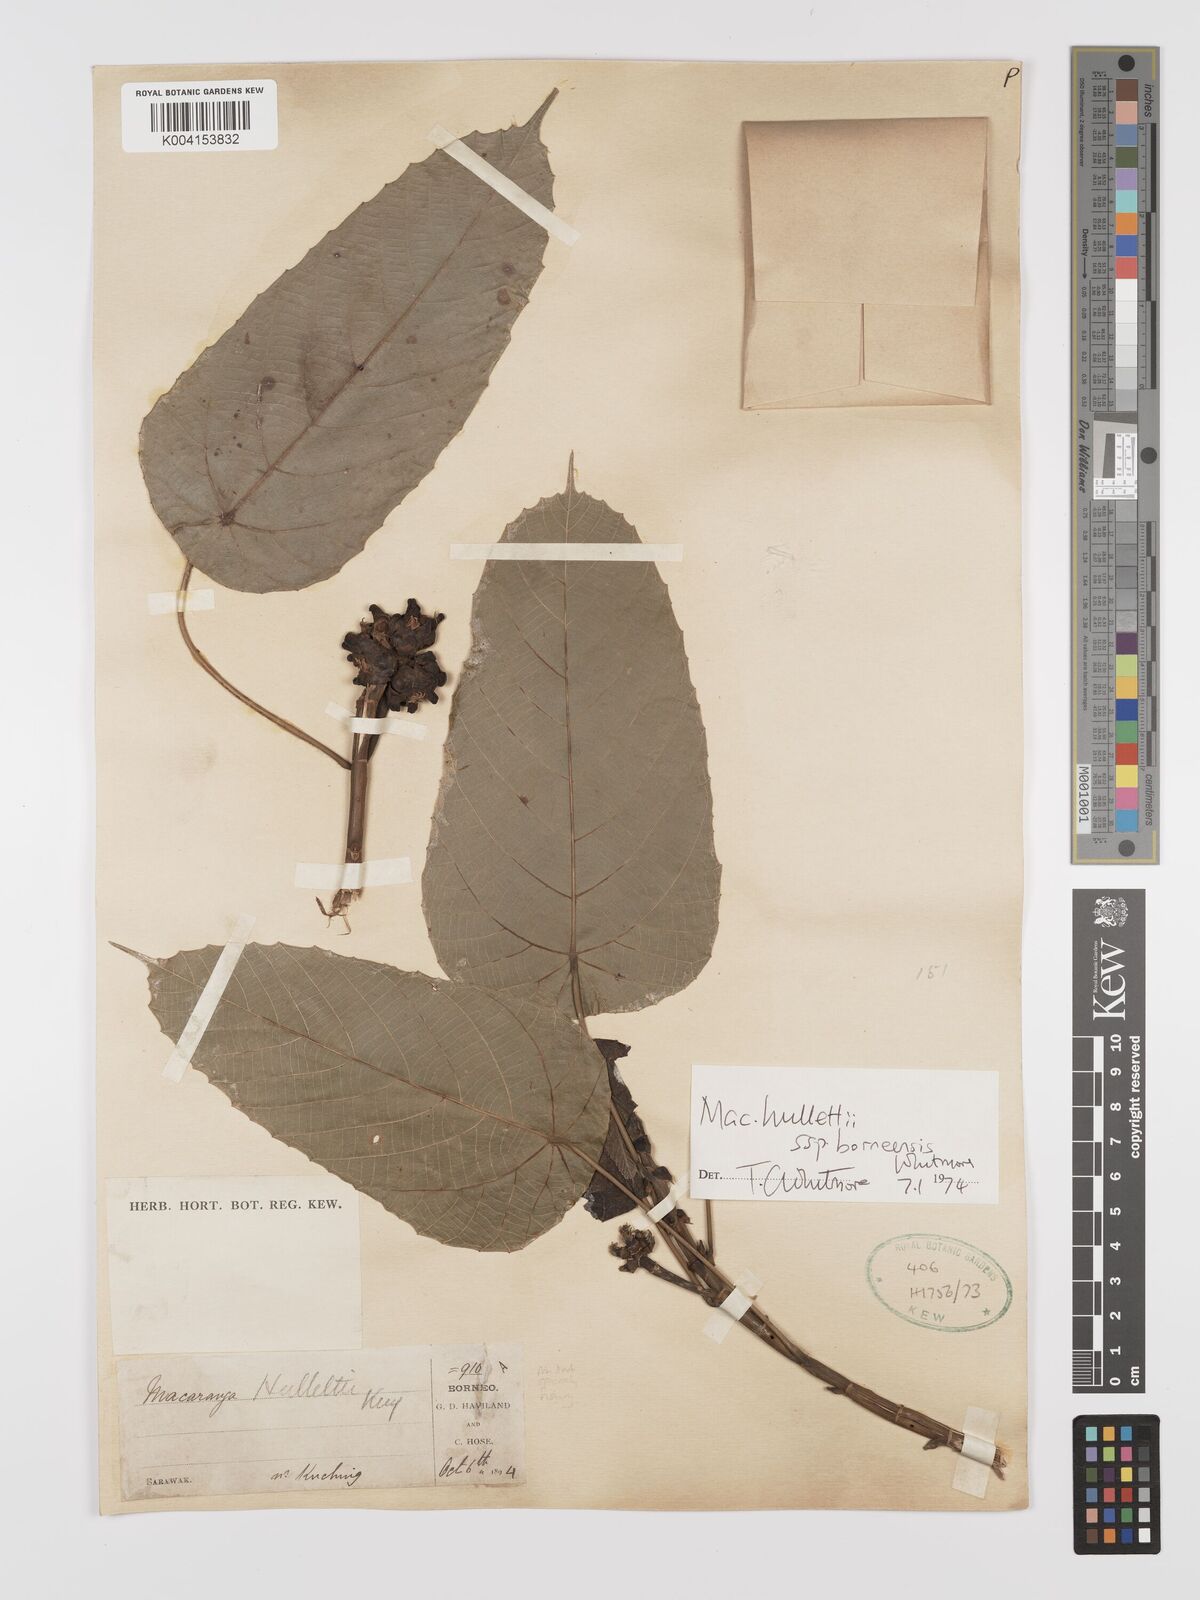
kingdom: Plantae
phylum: Tracheophyta
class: Magnoliopsida
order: Malpighiales
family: Euphorbiaceae
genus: Macaranga
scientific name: Macaranga hullettii
